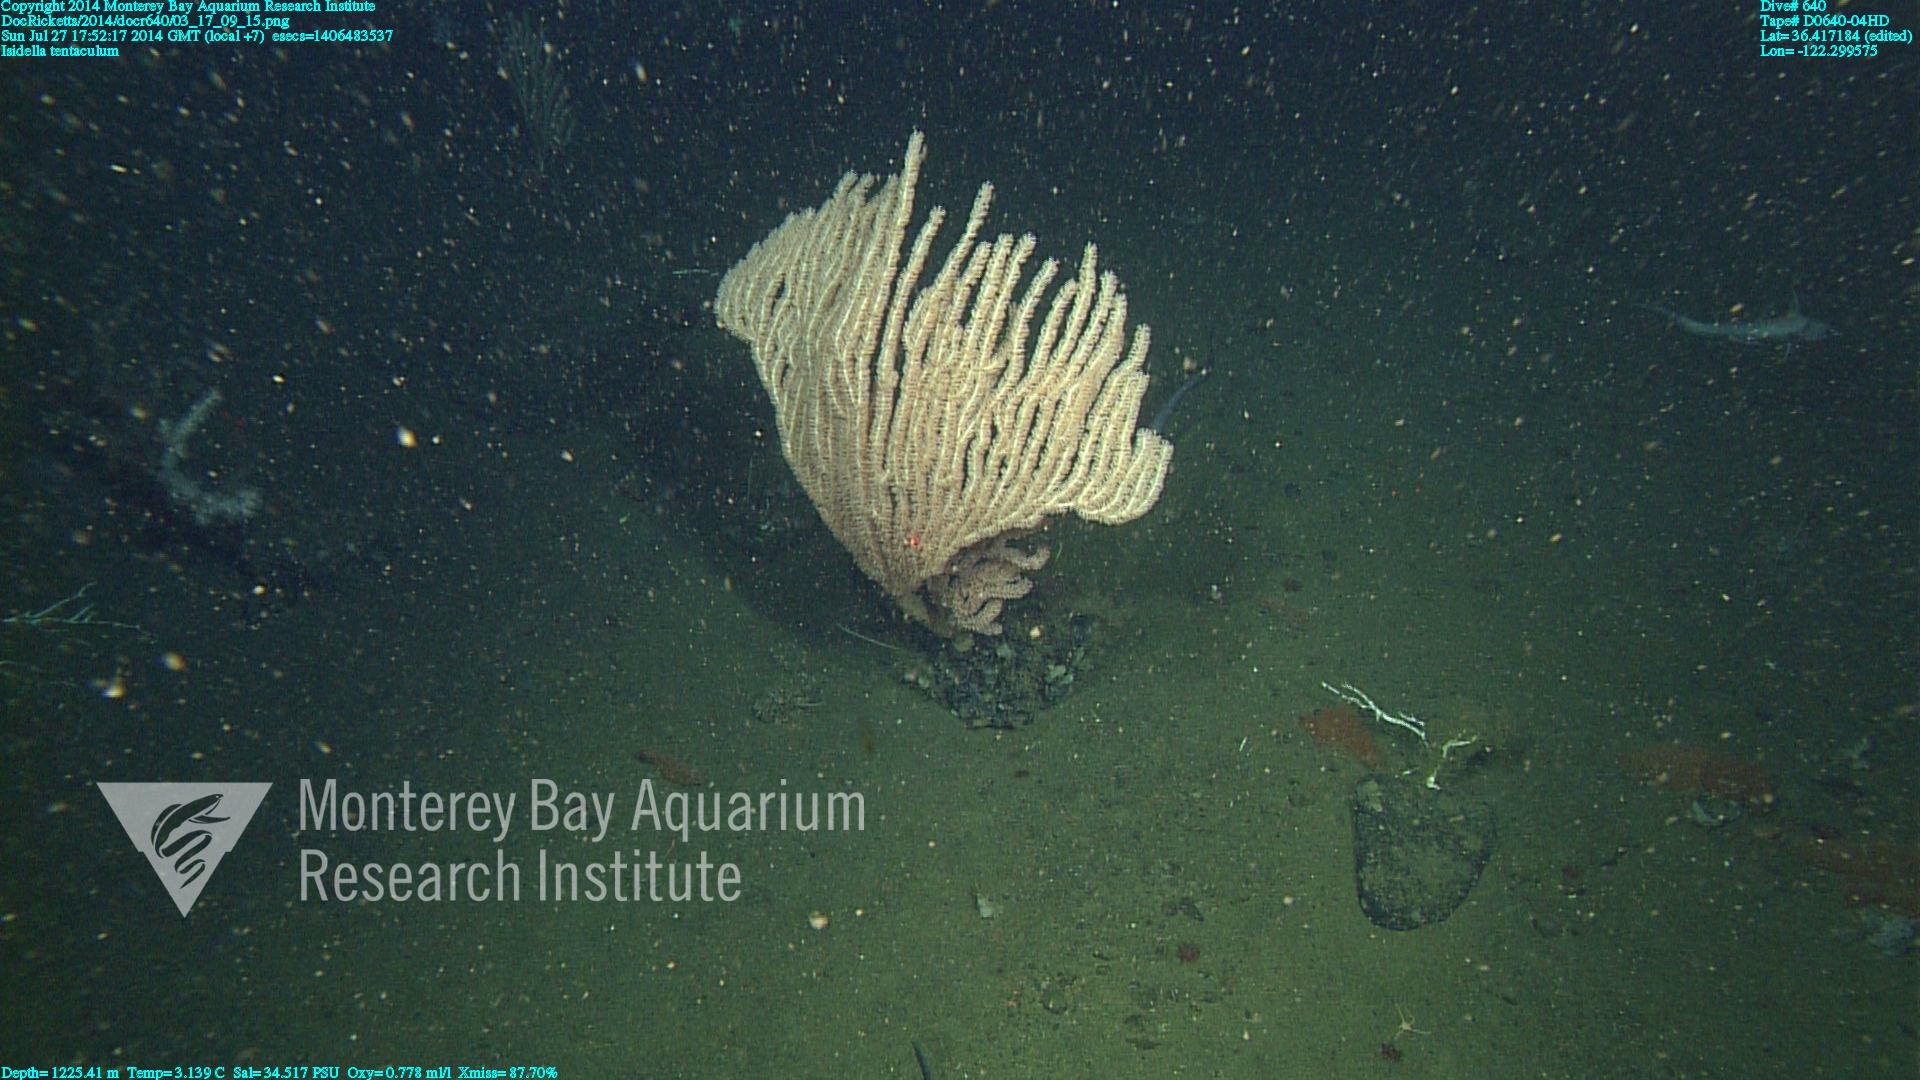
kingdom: Animalia
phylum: Cnidaria
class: Anthozoa
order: Scleralcyonacea
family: Keratoisididae
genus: Isidella
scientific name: Isidella tentaculum
